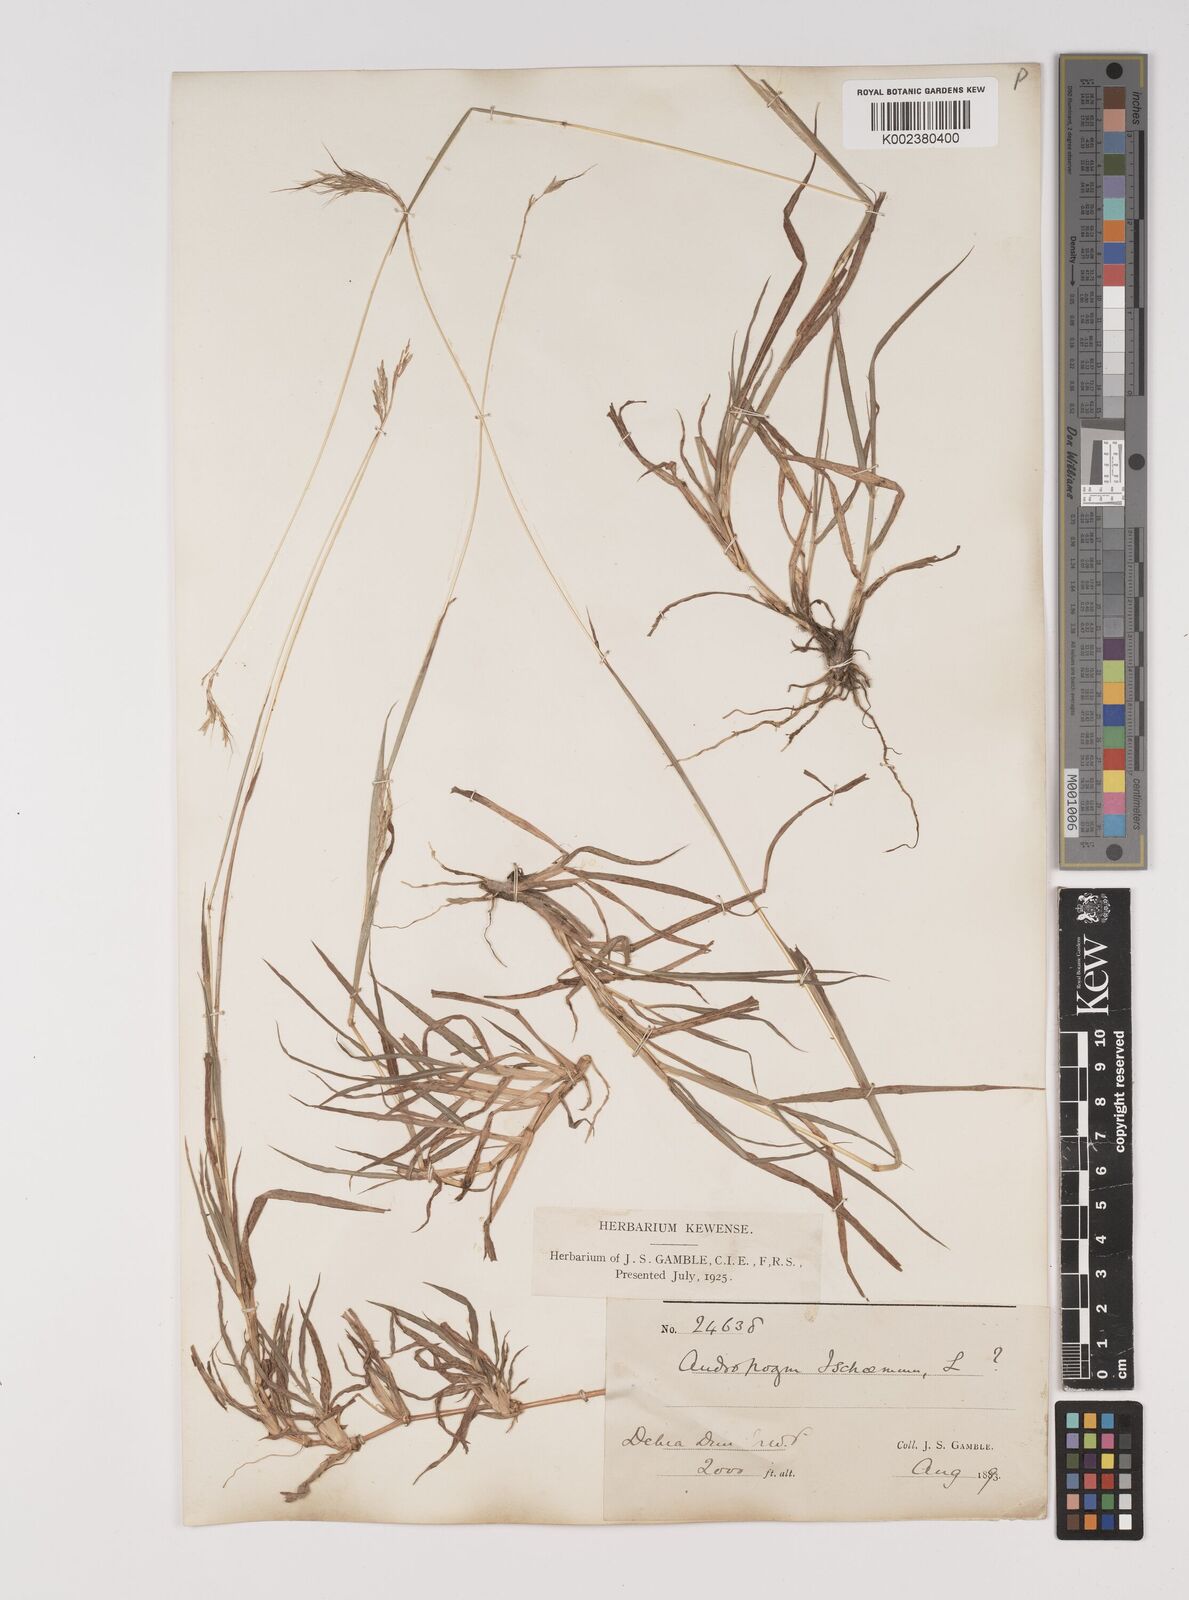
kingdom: Plantae
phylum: Tracheophyta
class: Liliopsida
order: Poales
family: Poaceae
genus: Bothriochloa
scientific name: Bothriochloa pertusa
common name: Pitted beardgrass
